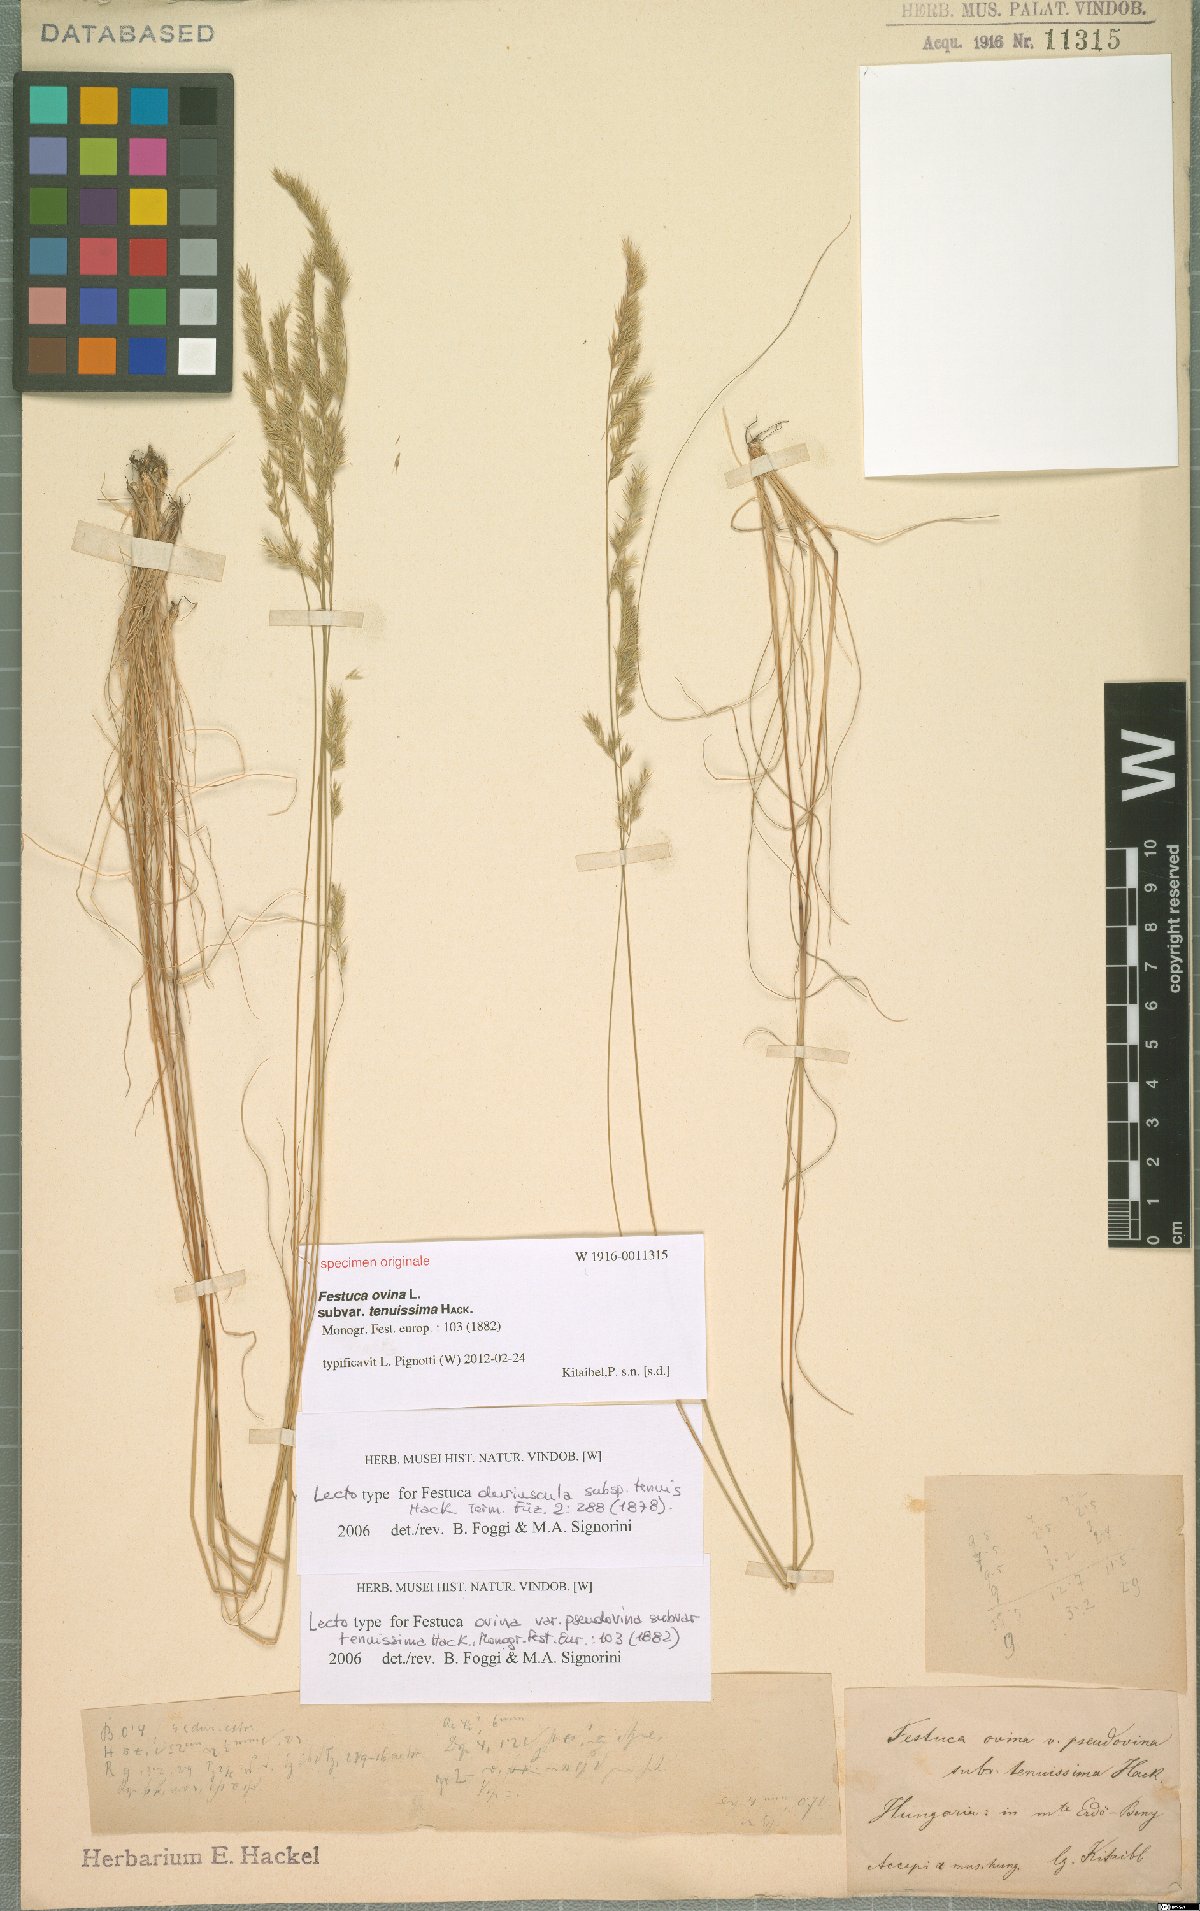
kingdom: Plantae
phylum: Tracheophyta
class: Liliopsida
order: Poales
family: Poaceae
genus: Festuca
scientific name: Festuca ovina
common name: Sheep fescue
